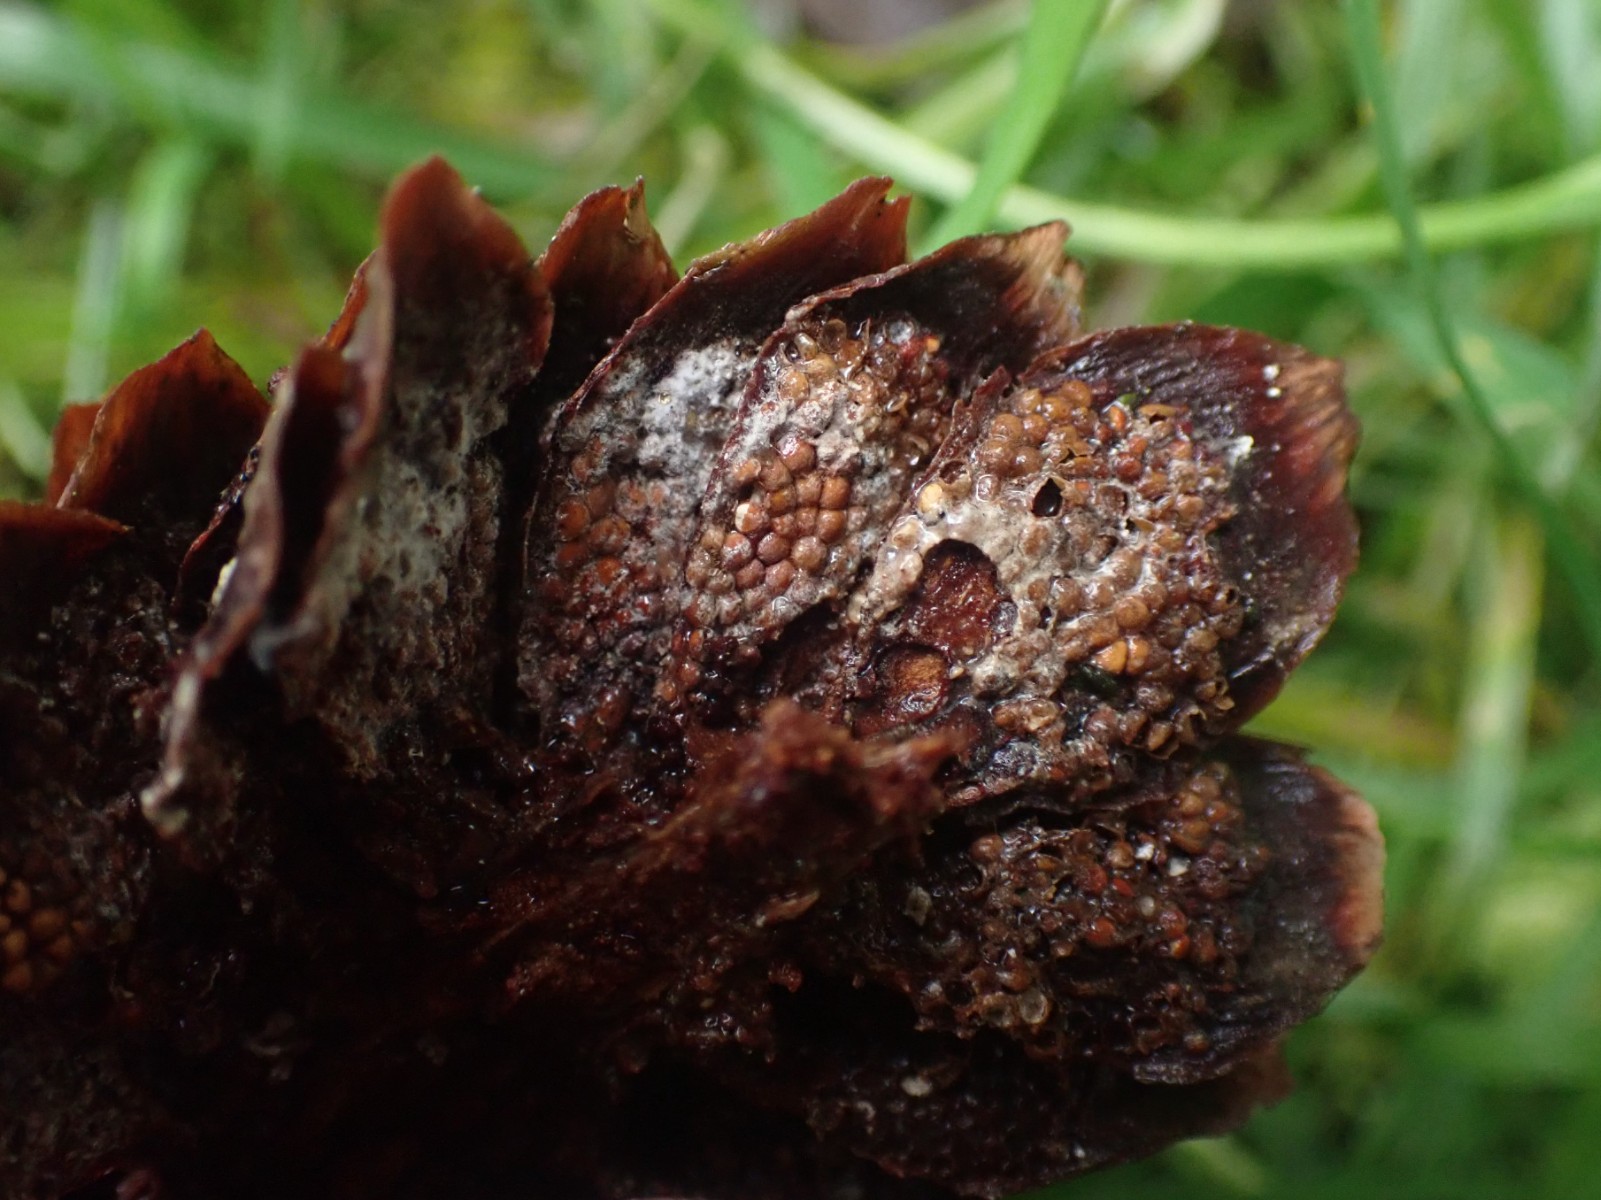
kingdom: Fungi
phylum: Basidiomycota
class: Pucciniomycetes
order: Pucciniales
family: Pucciniastraceae
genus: Thekopsora
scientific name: Thekopsora areolata
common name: grankogle-nålerust
